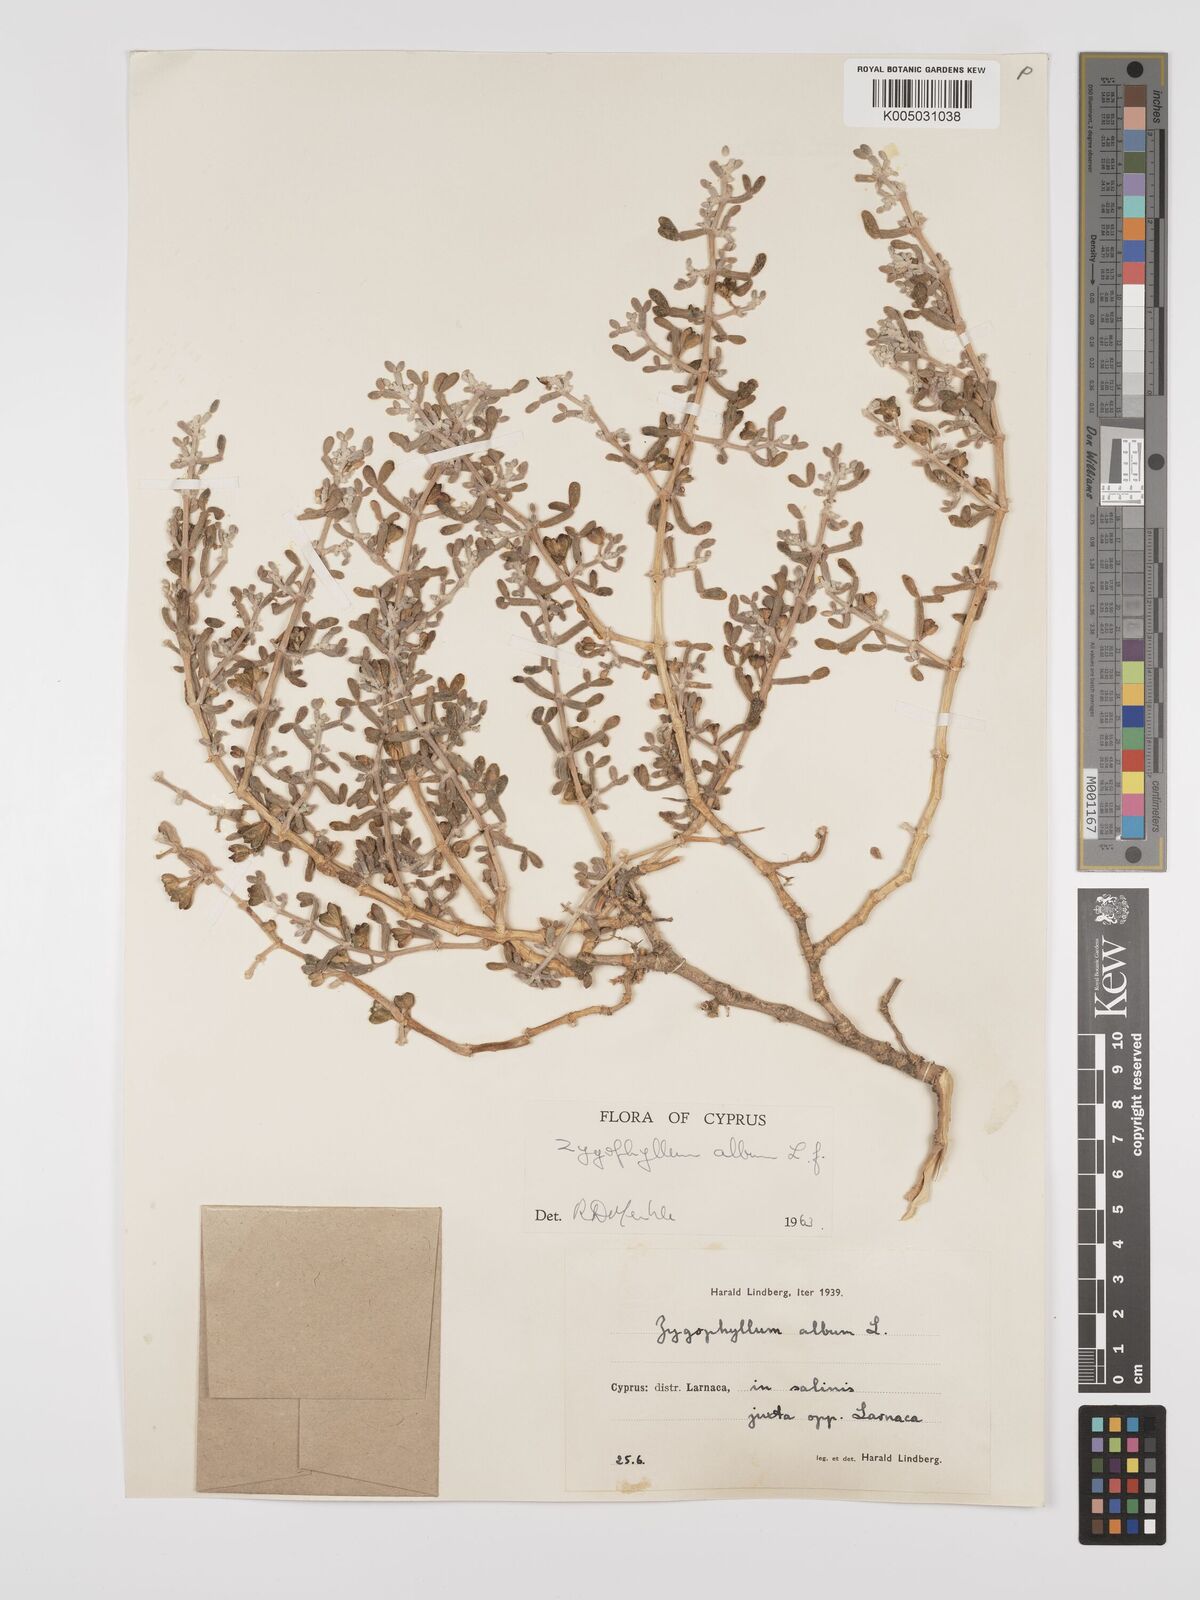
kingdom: Plantae
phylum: Tracheophyta
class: Magnoliopsida
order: Zygophyllales
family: Zygophyllaceae
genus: Zygophyllum
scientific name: Zygophyllum
